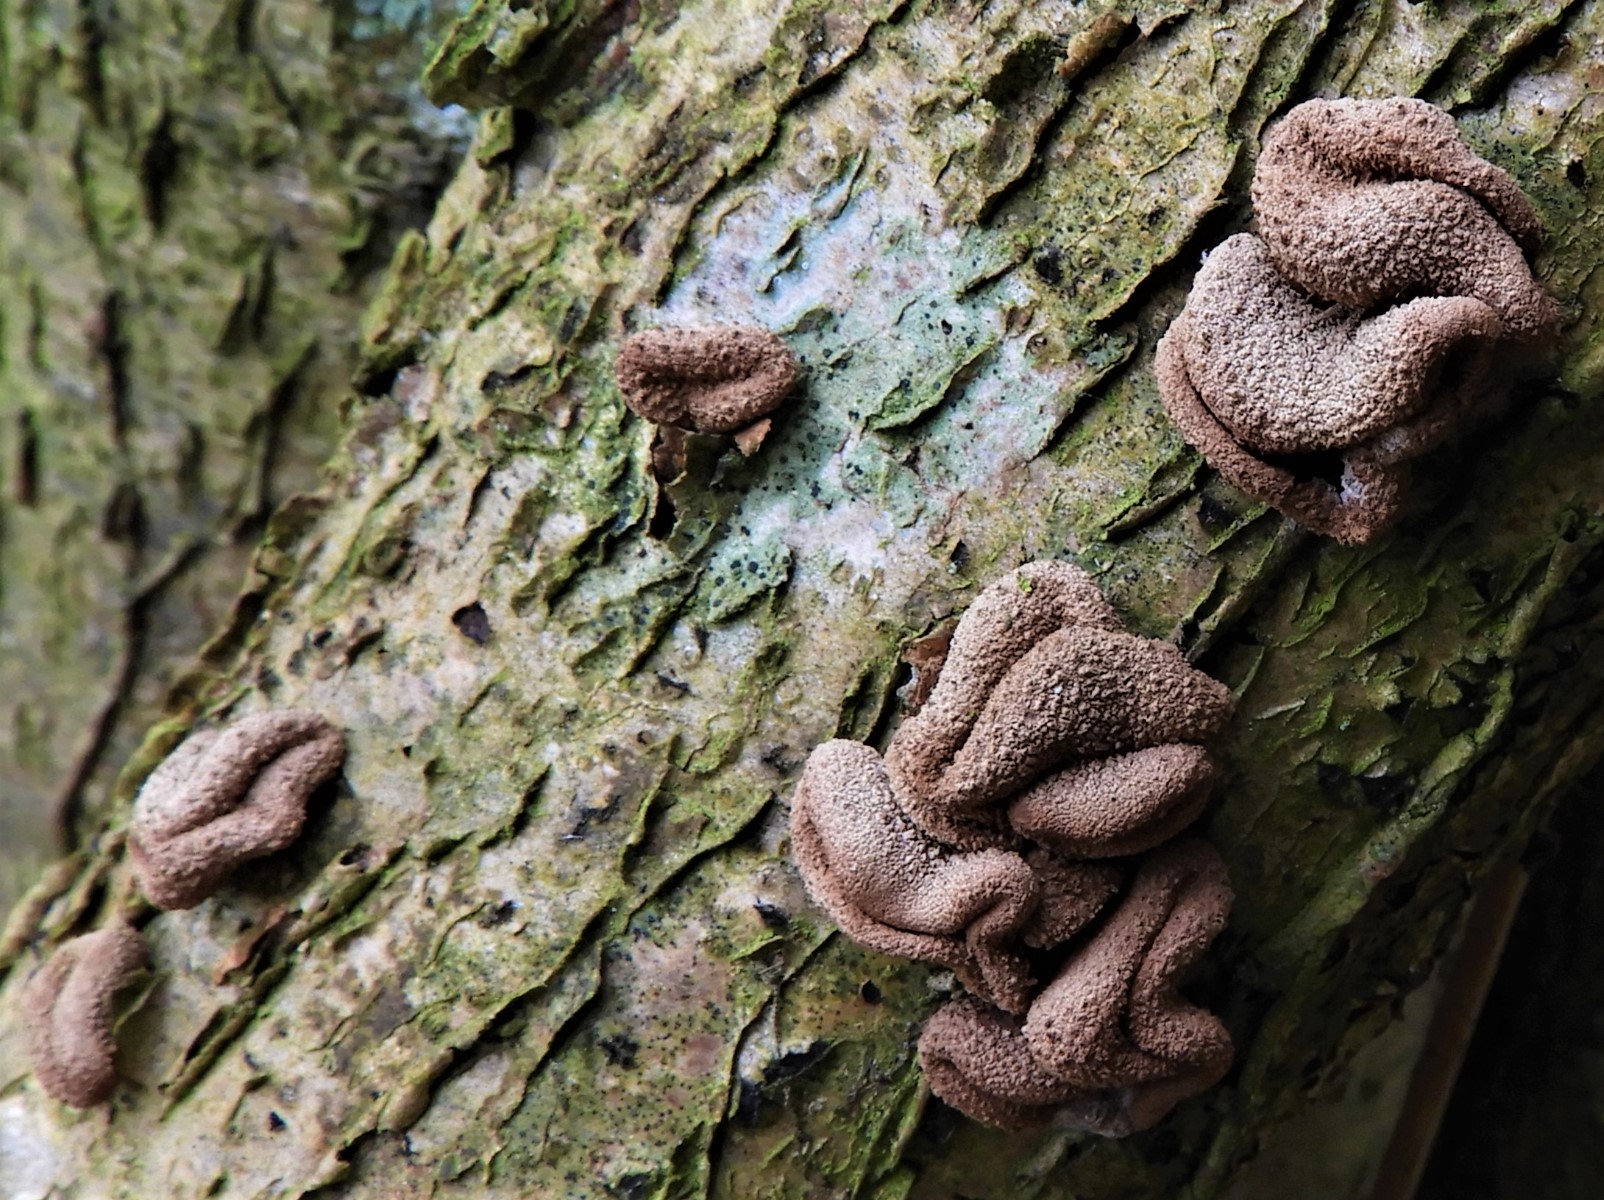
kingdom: Fungi
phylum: Ascomycota
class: Leotiomycetes
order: Helotiales
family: Cenangiaceae
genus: Encoelia
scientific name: Encoelia furfuracea
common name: hassel-læderskive
